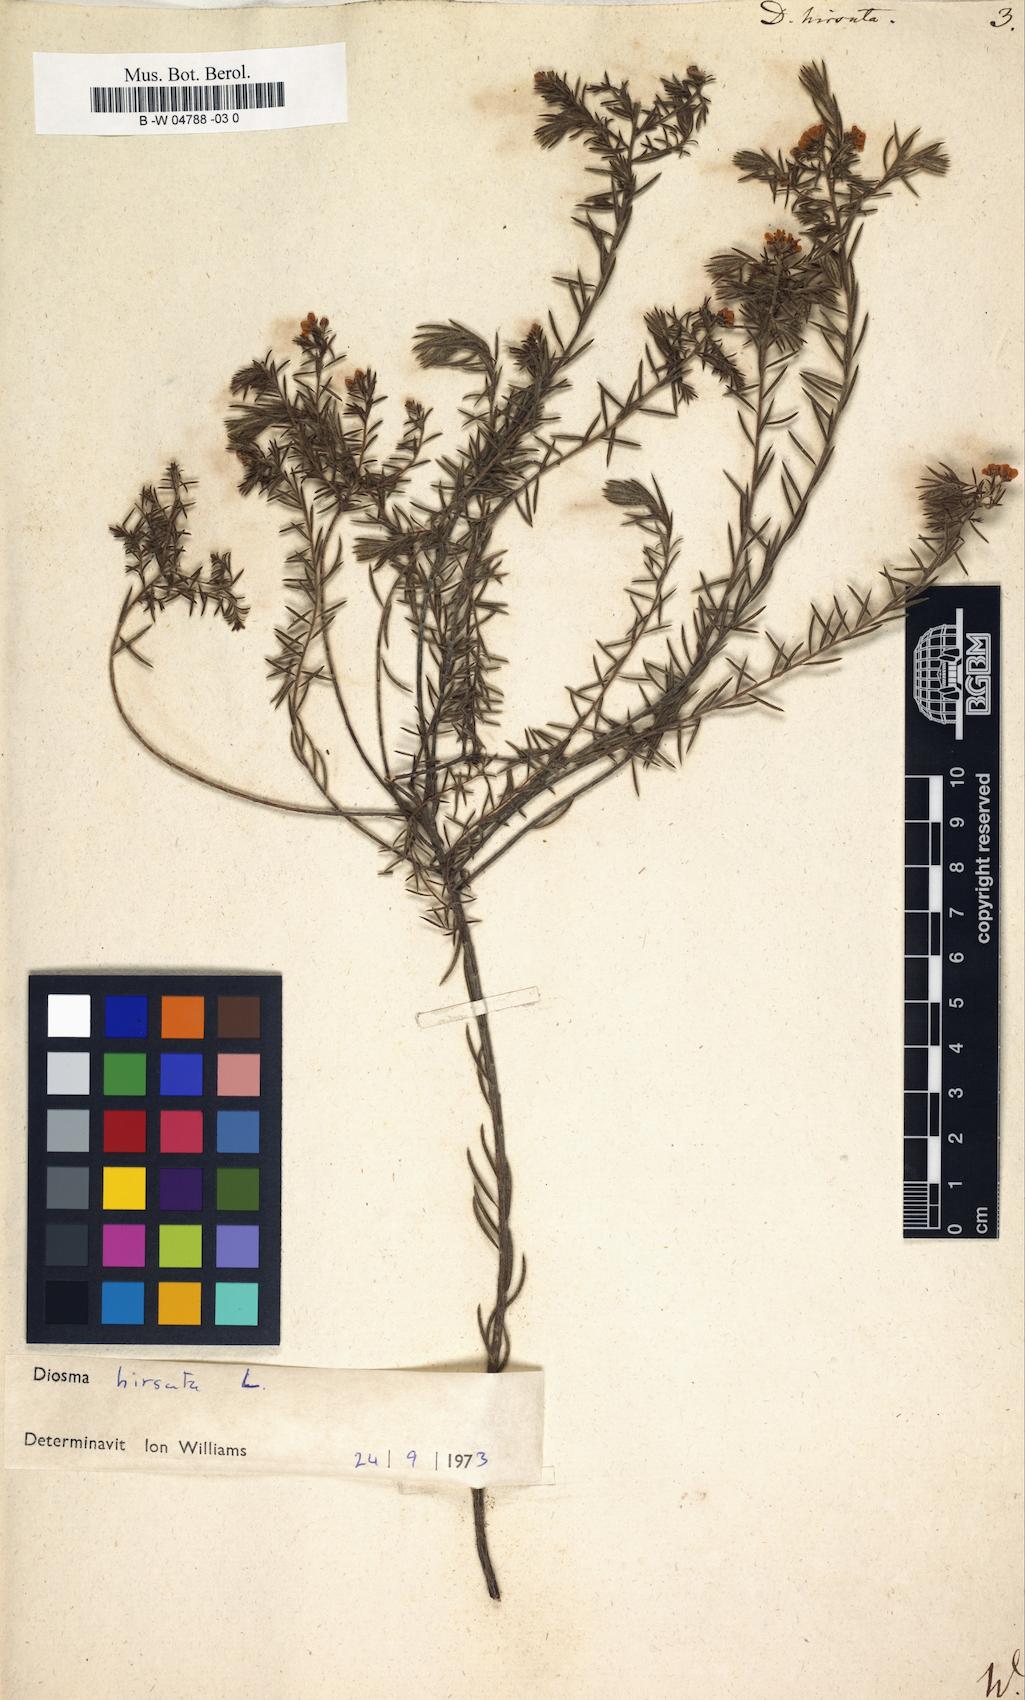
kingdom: Plantae
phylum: Tracheophyta
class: Magnoliopsida
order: Sapindales
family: Rutaceae
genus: Diosma
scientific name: Diosma hirsuta
